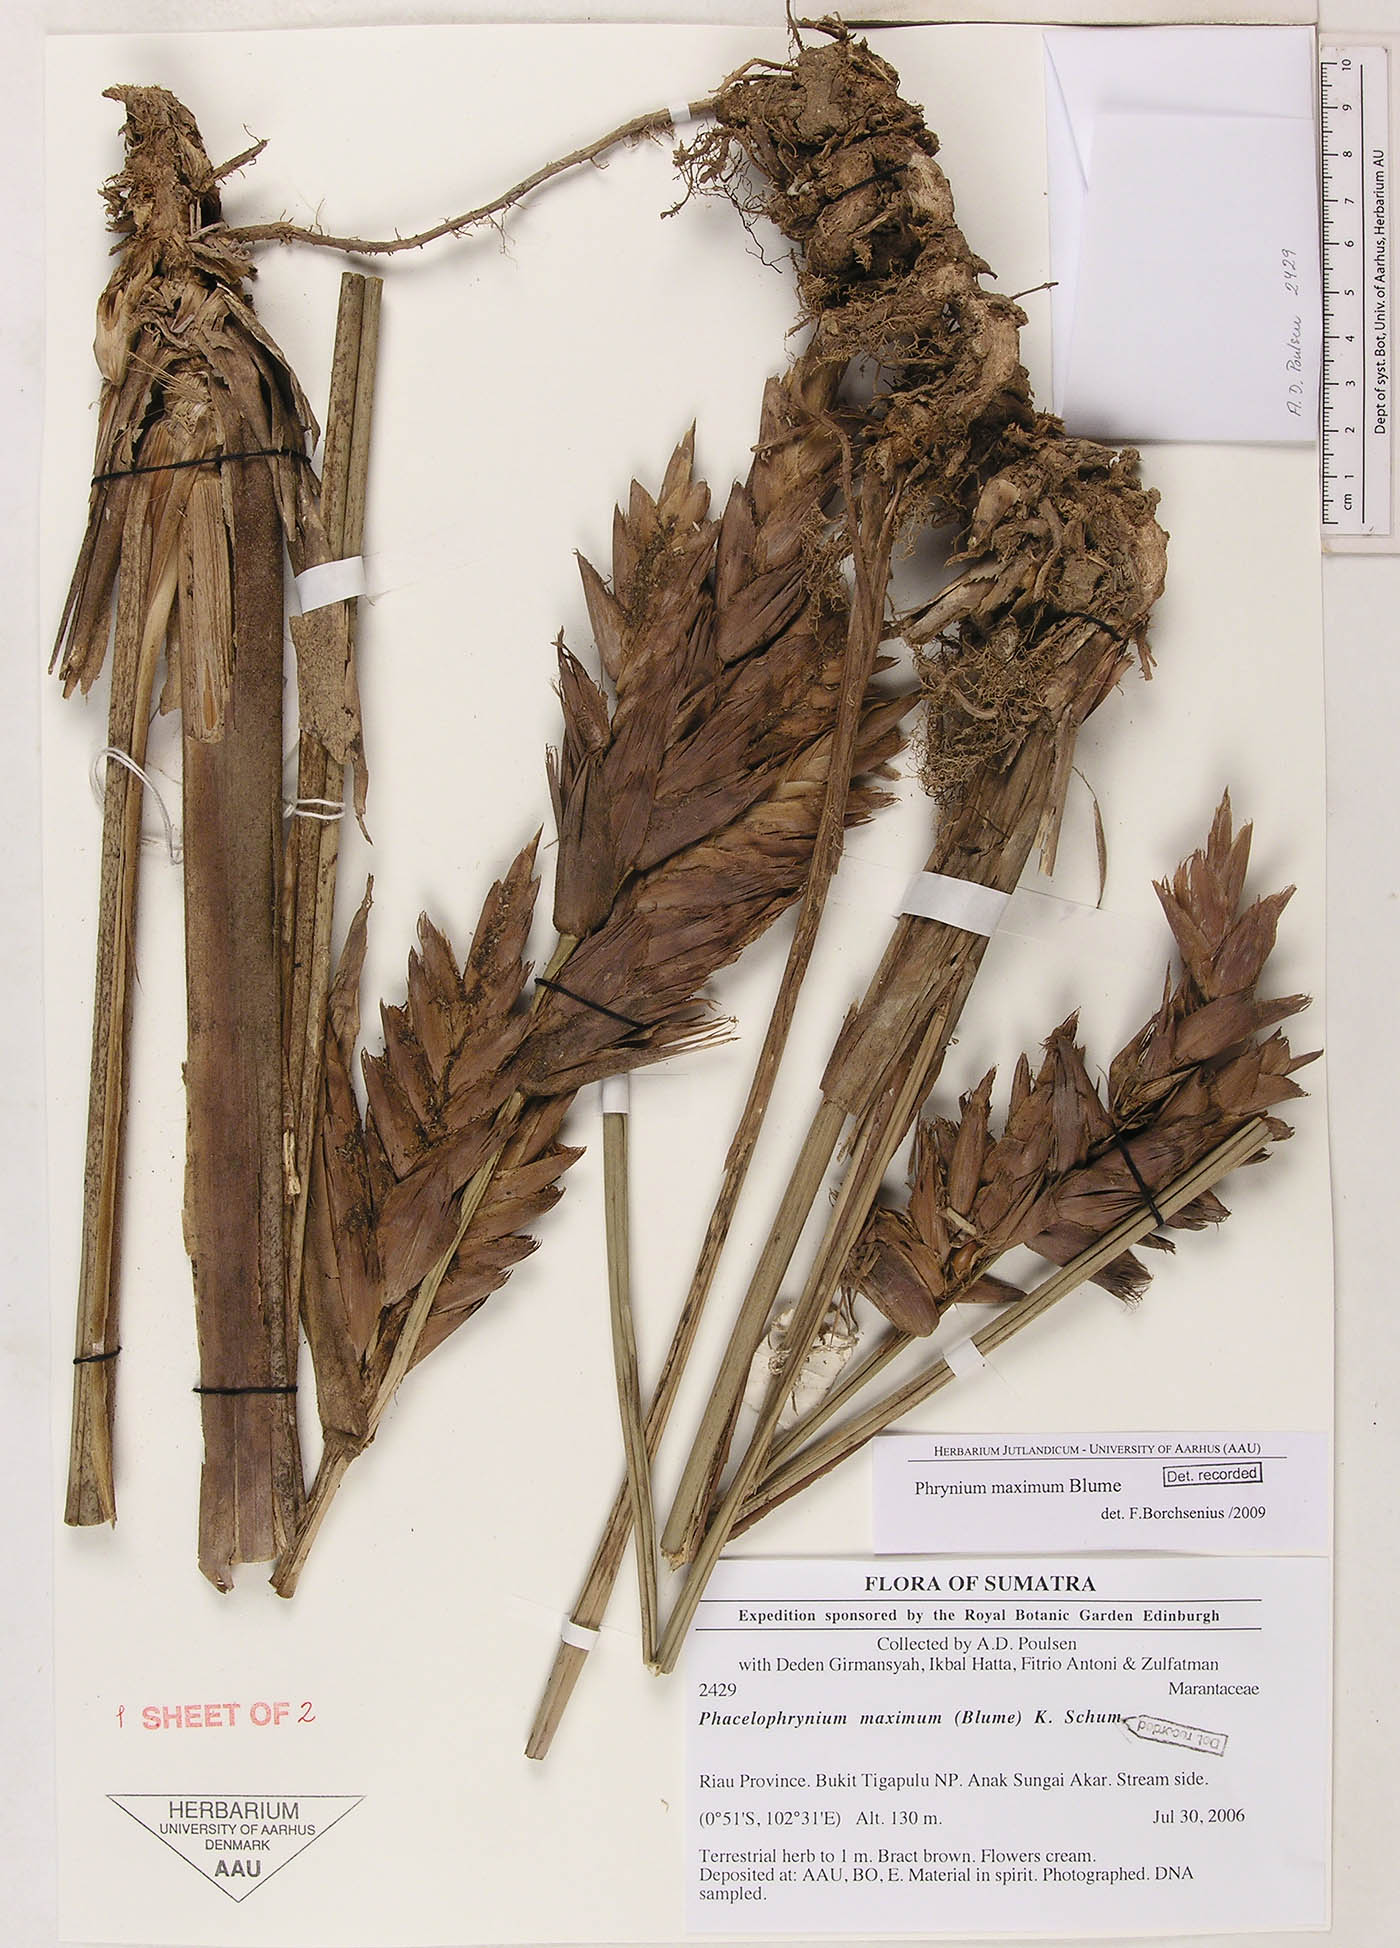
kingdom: Plantae
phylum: Tracheophyta
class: Liliopsida
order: Zingiberales
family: Marantaceae
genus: Phrynium
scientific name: Phrynium maximum
